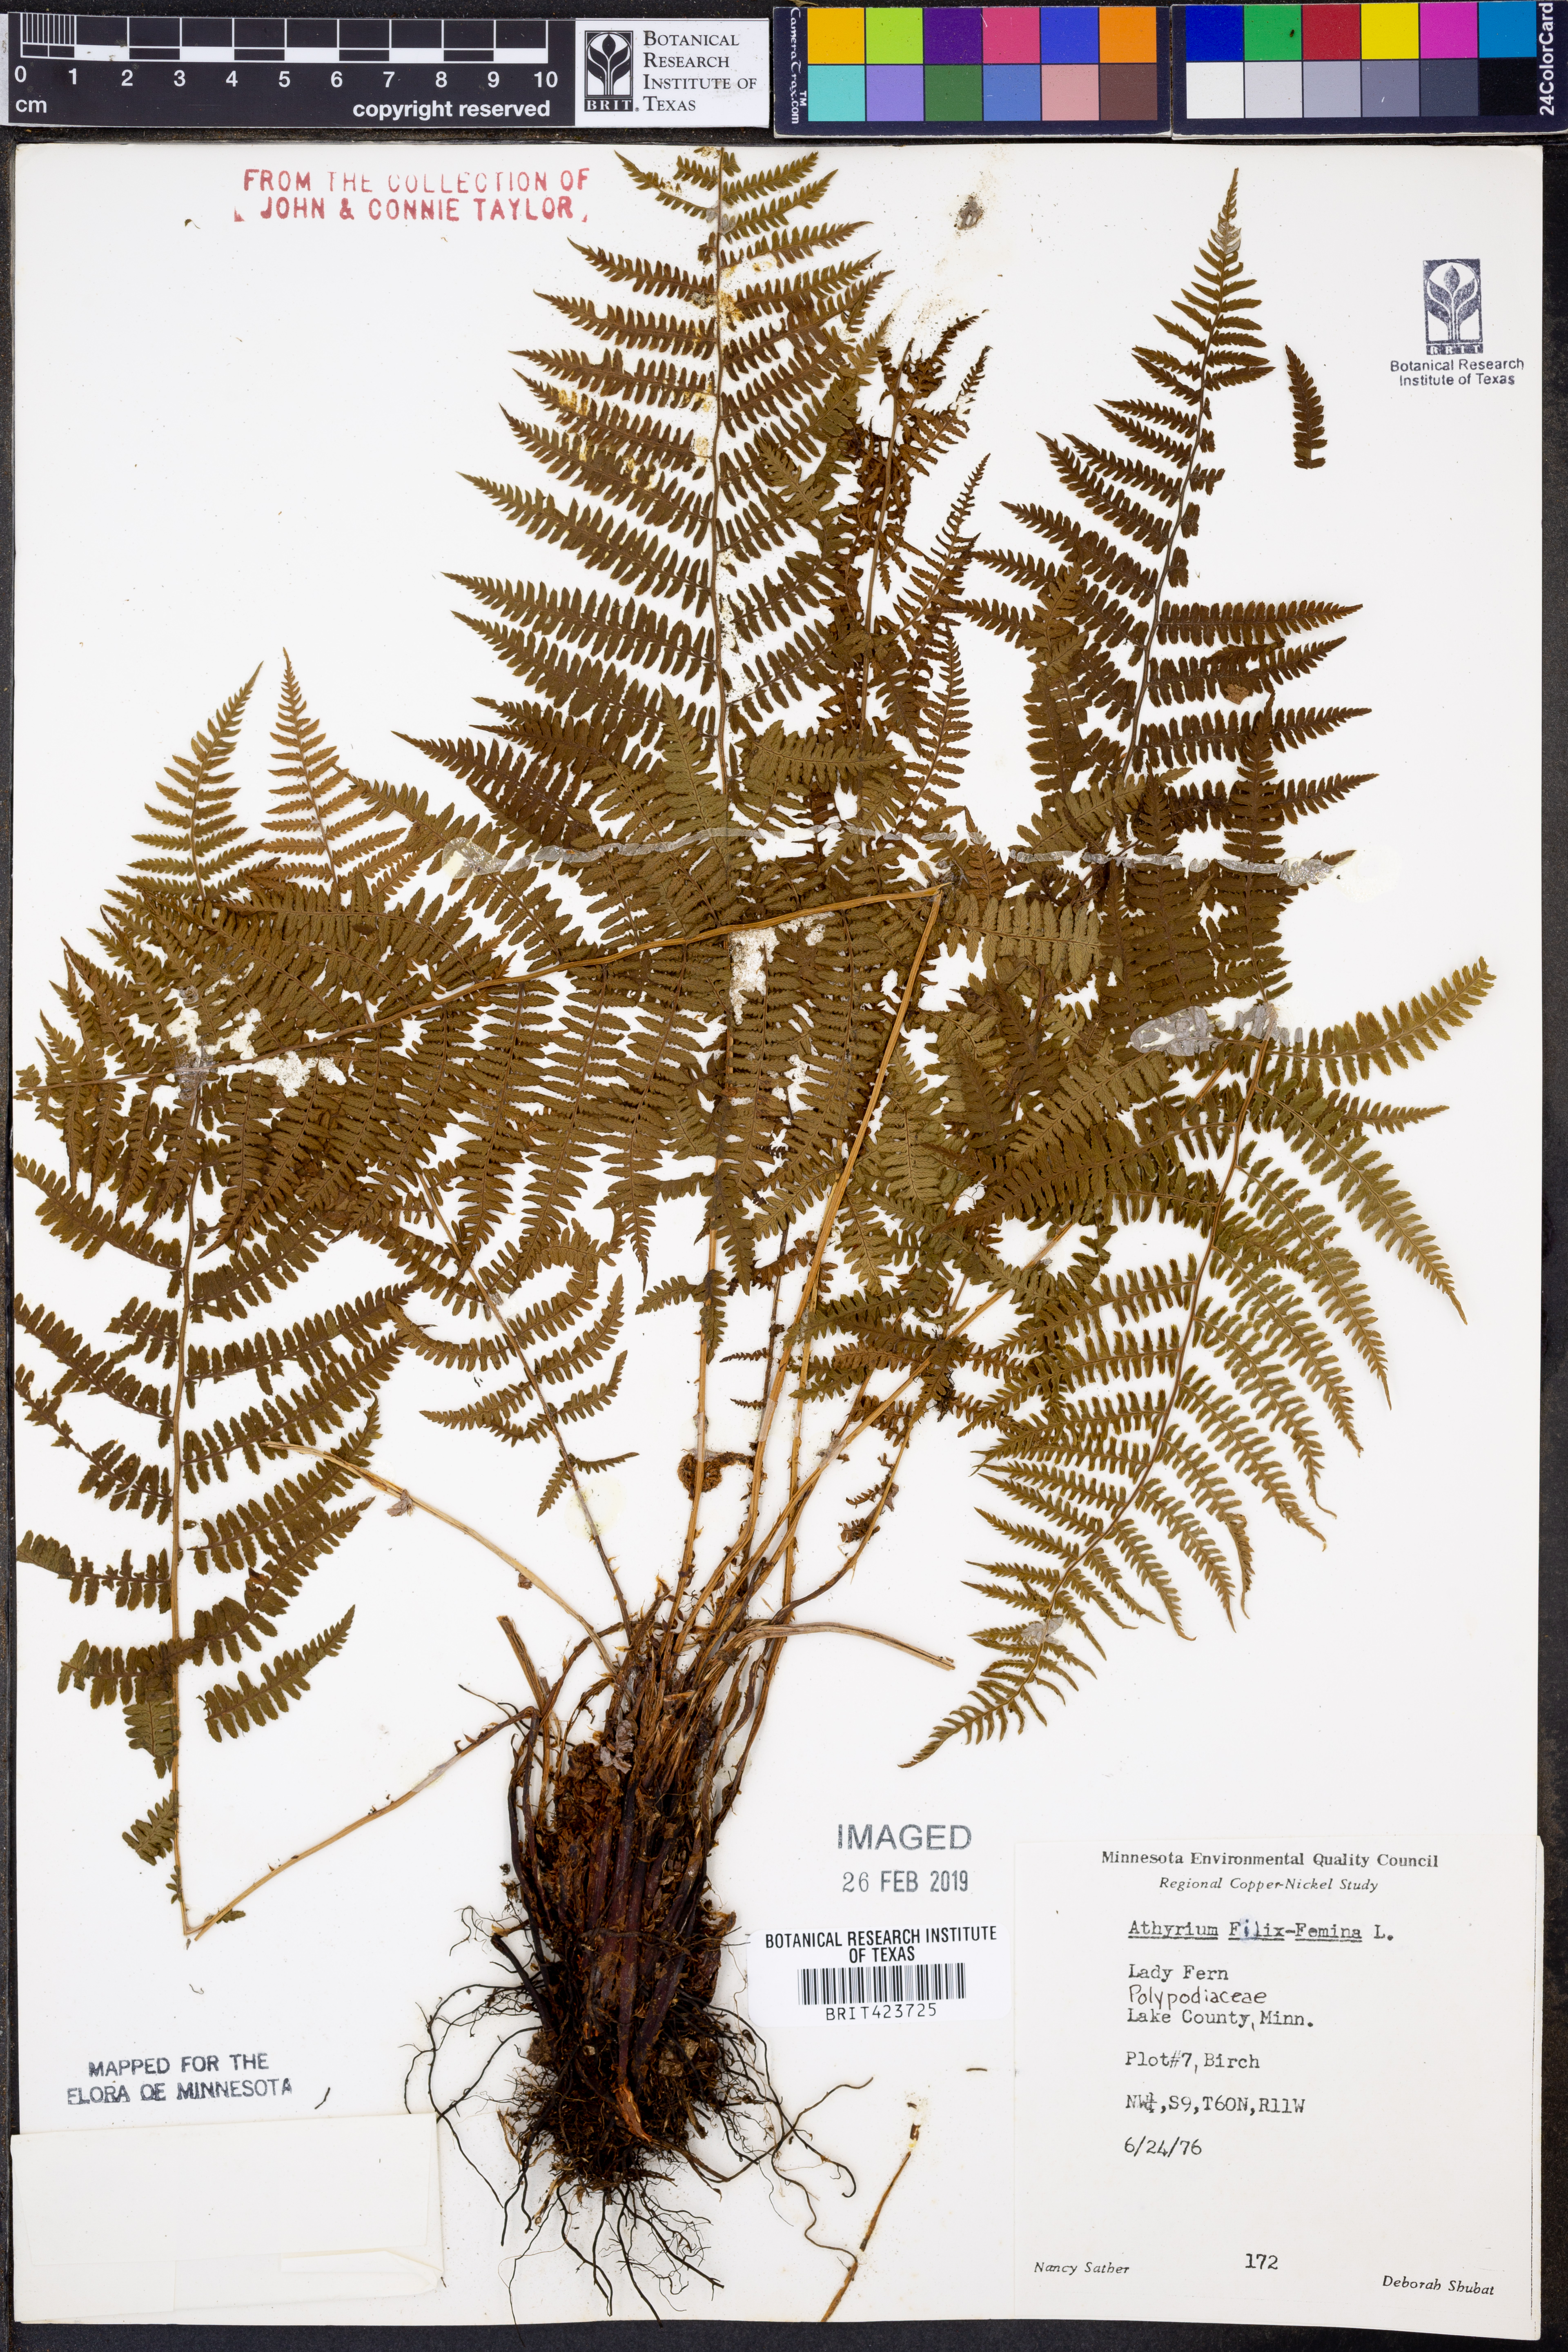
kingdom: Plantae
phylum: Tracheophyta
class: Polypodiopsida
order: Polypodiales
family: Athyriaceae
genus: Athyrium
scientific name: Athyrium filix-femina
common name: Lady fern
